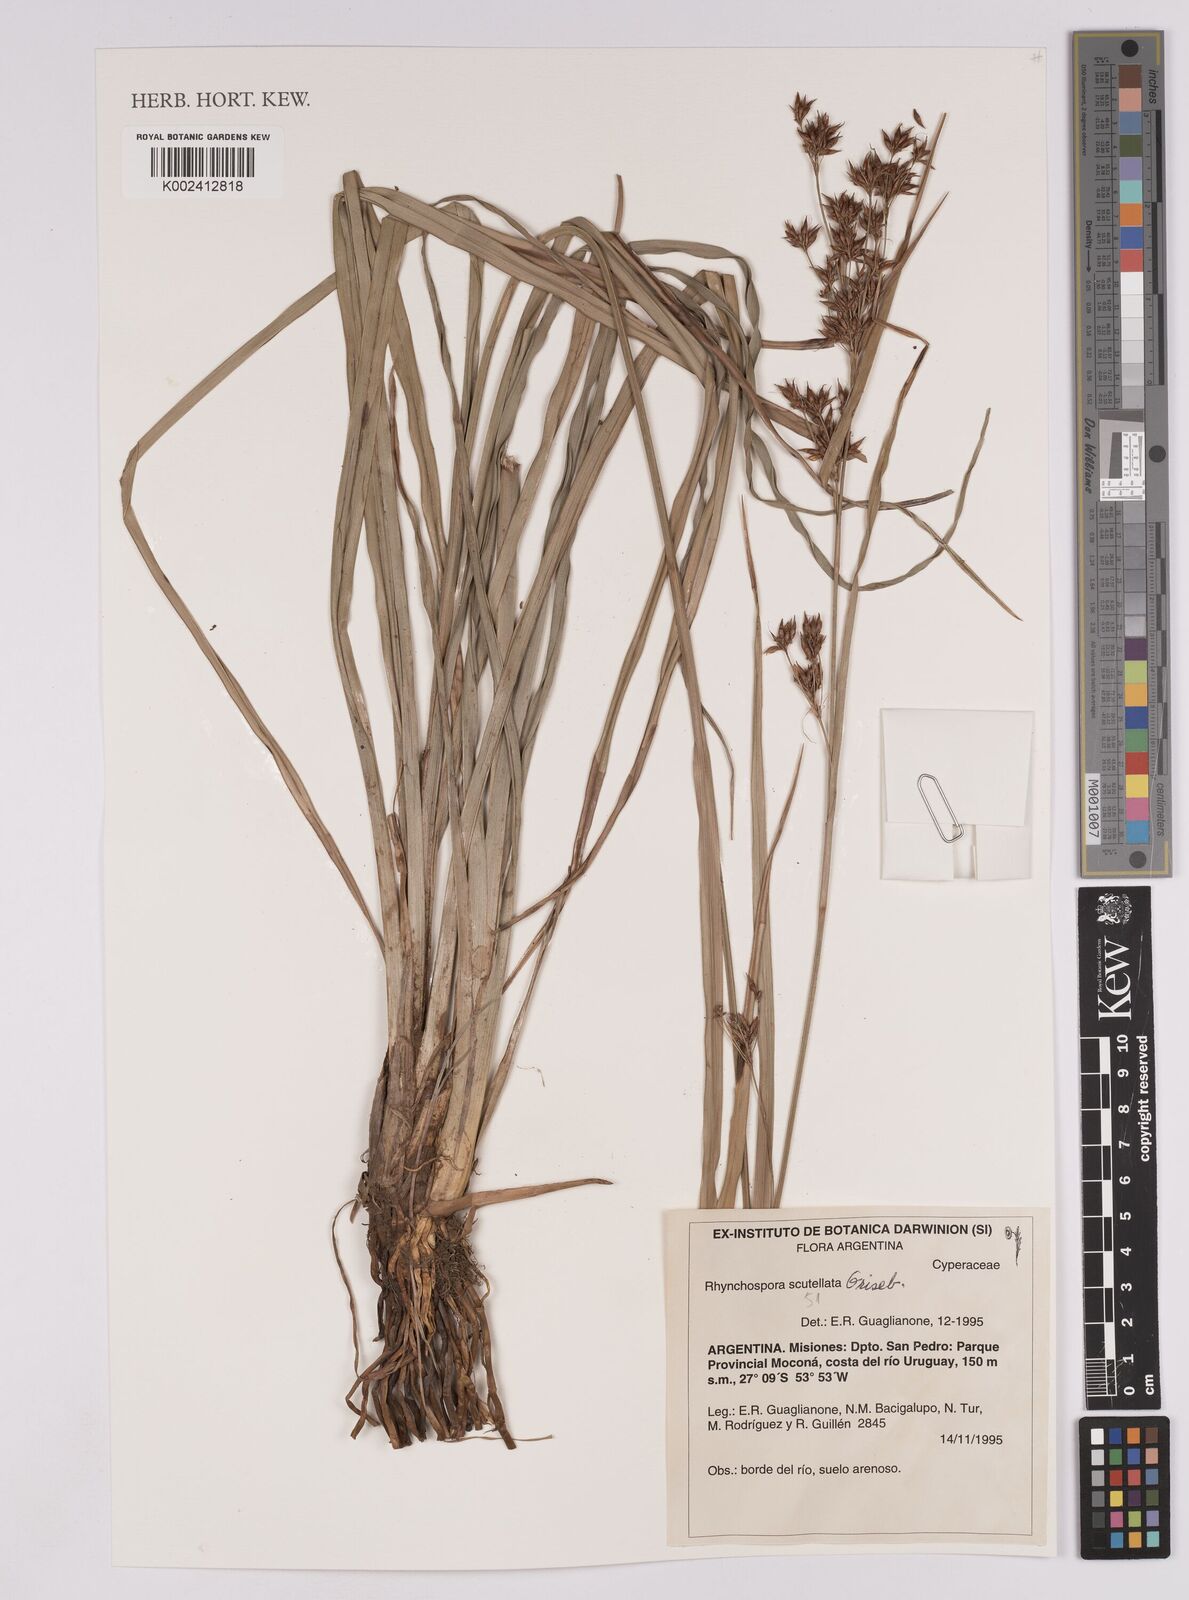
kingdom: Plantae
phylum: Tracheophyta
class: Liliopsida
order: Poales
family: Cyperaceae
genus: Rhynchospora
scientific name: Rhynchospora scutellata
